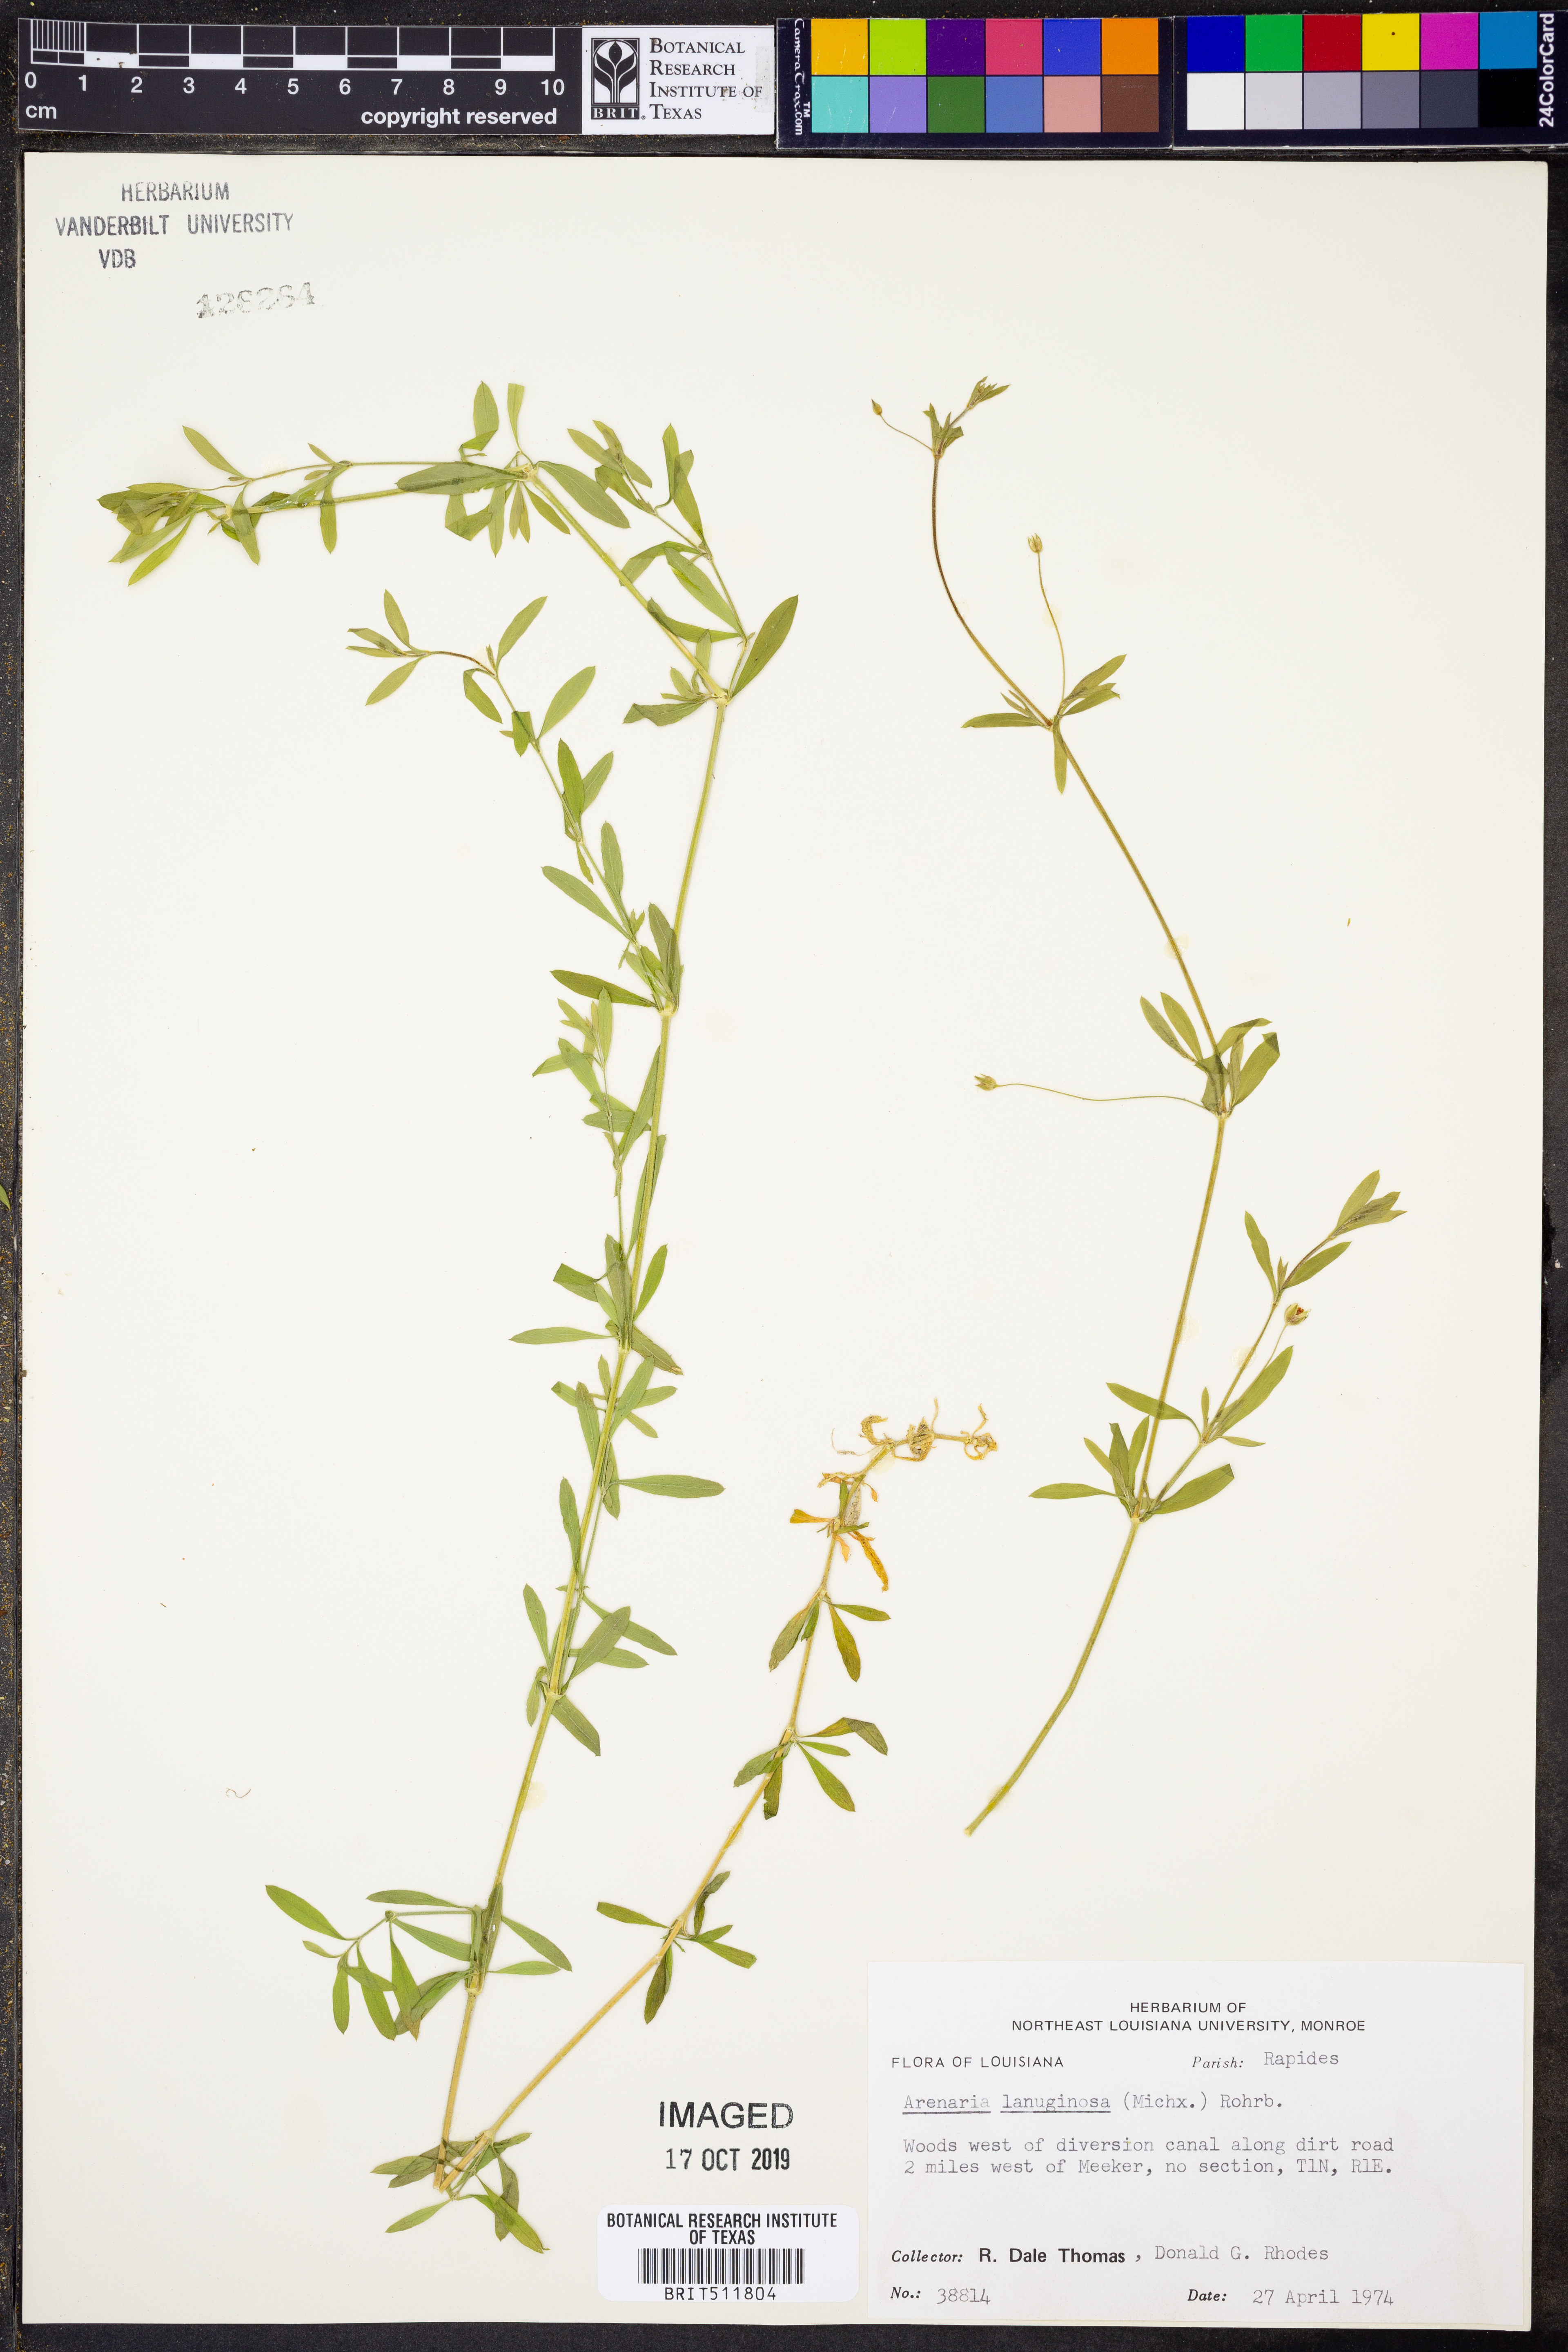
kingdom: Plantae
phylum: Tracheophyta
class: Magnoliopsida
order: Caryophyllales
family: Caryophyllaceae
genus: Arenaria
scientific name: Arenaria lanuginosa
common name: Spread sandwort
